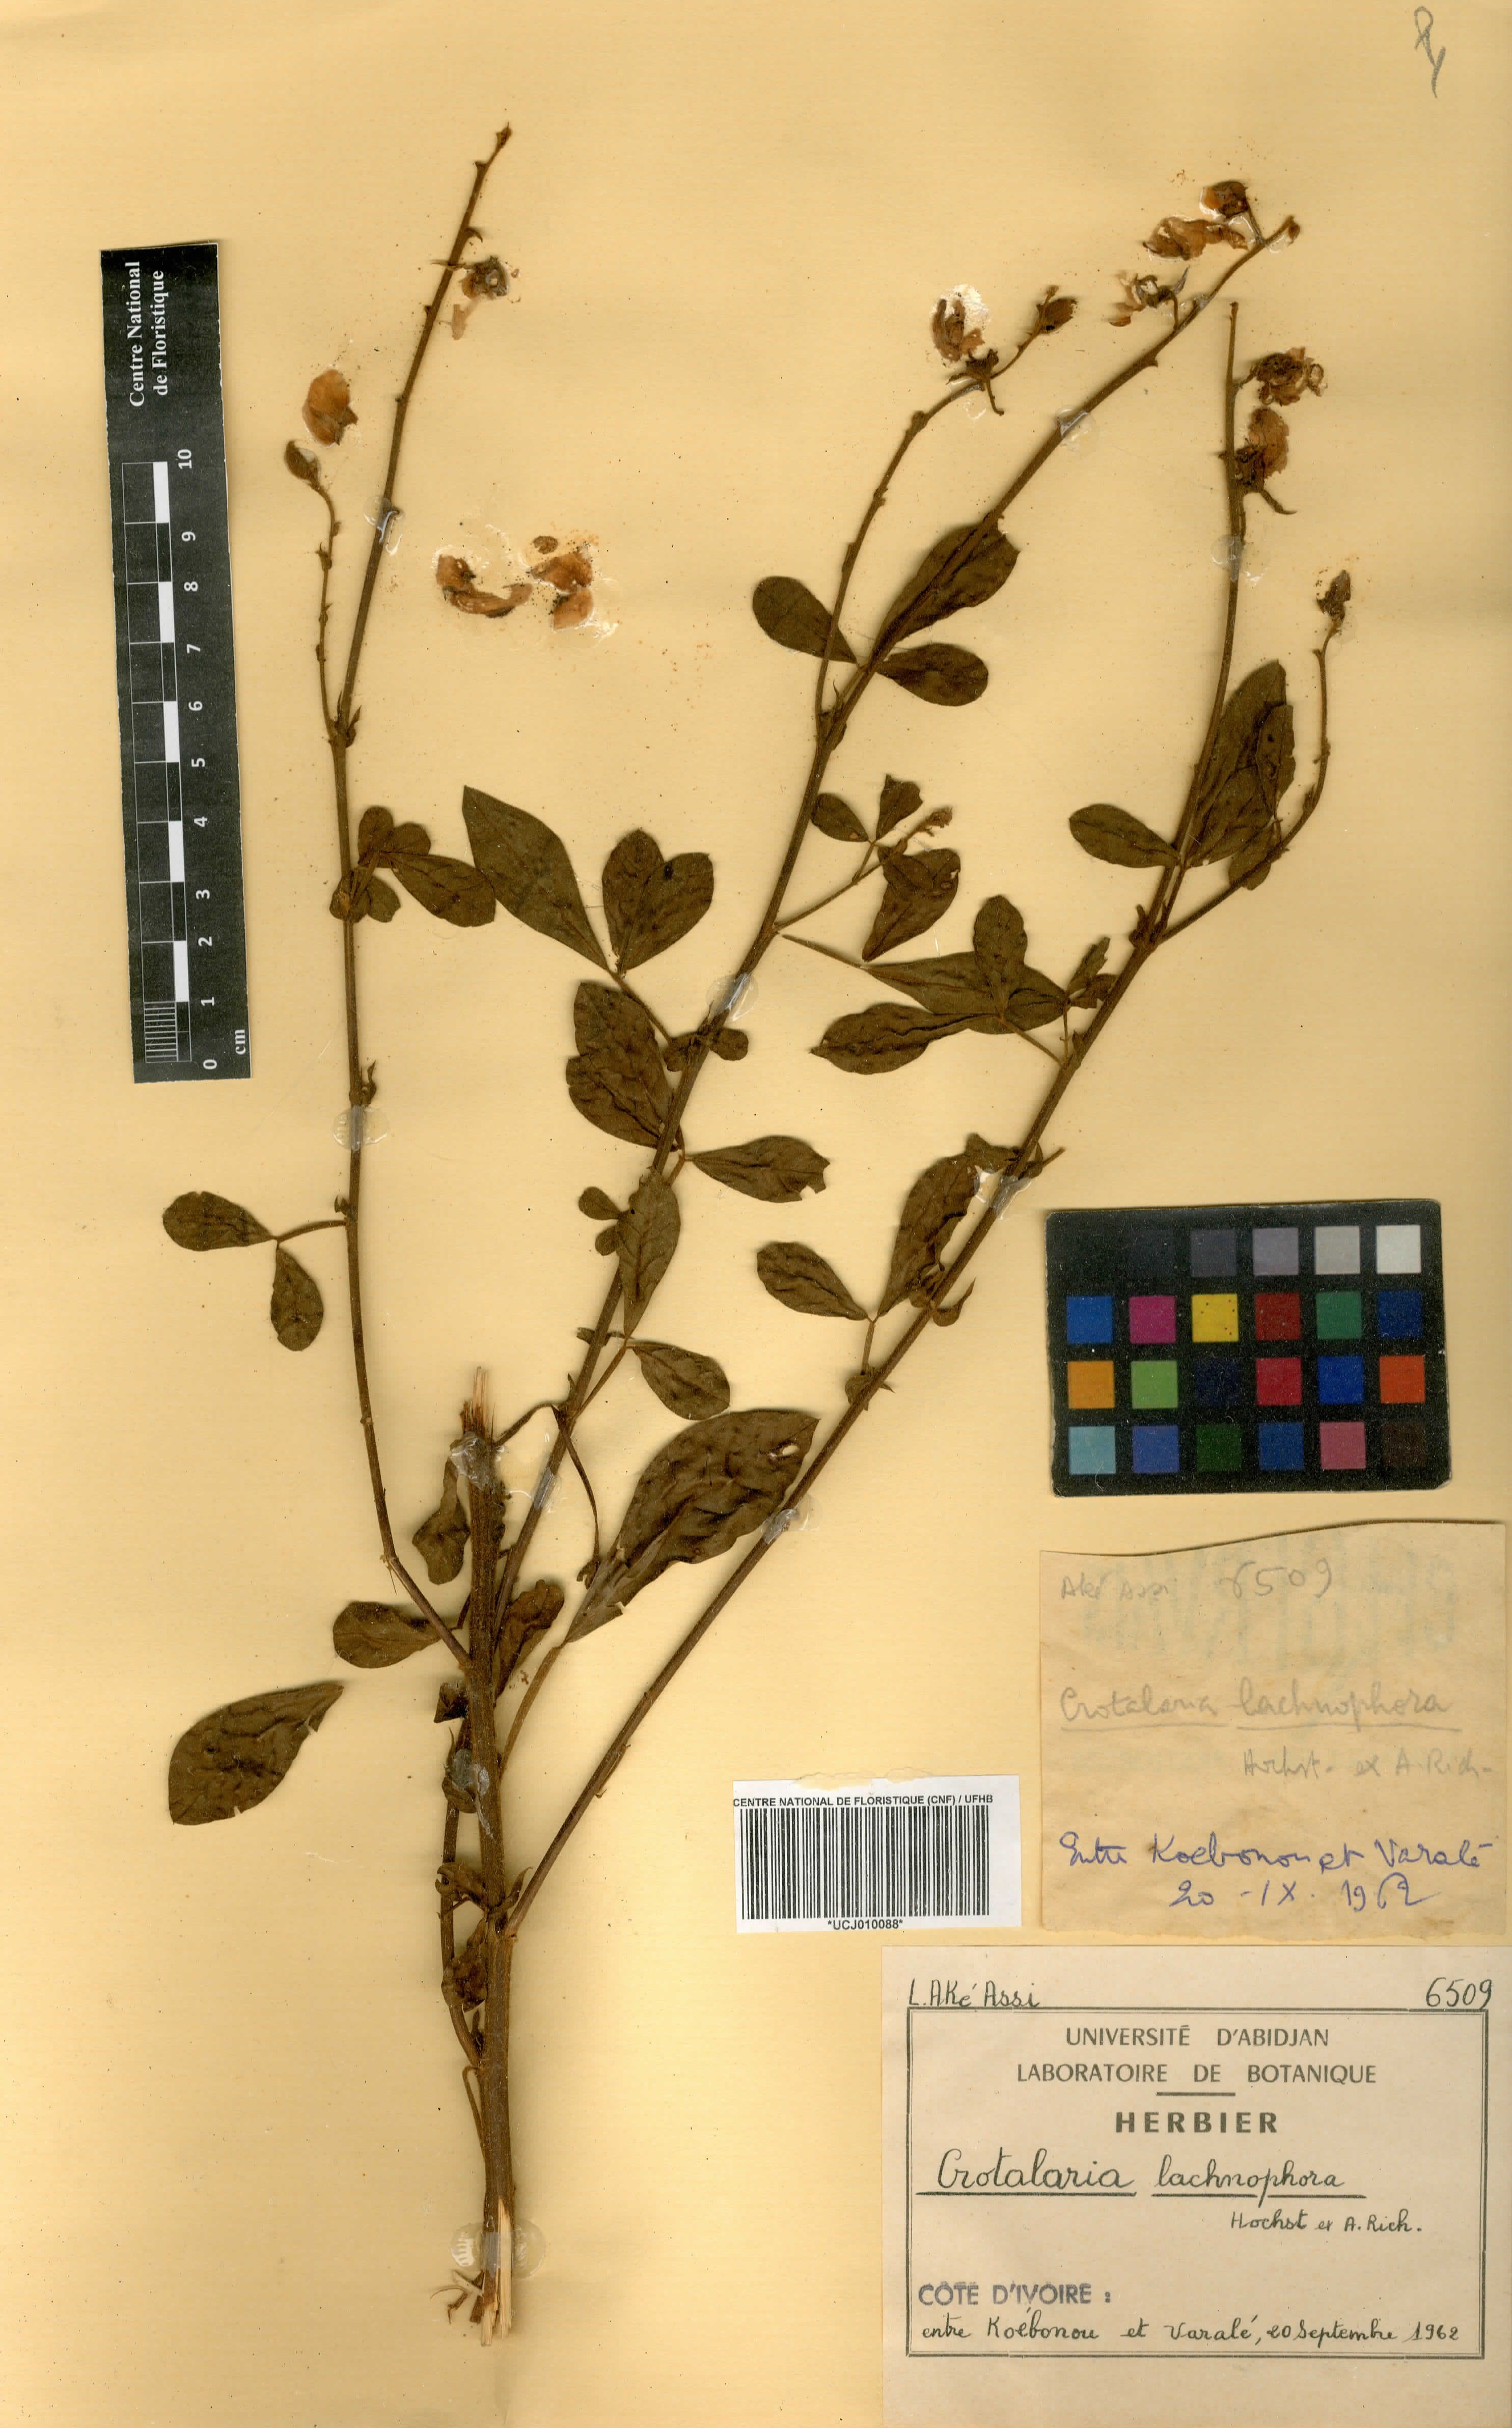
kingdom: Plantae
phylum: Tracheophyta
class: Magnoliopsida
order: Fabales
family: Fabaceae
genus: Crotalaria
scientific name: Crotalaria lachnophora
